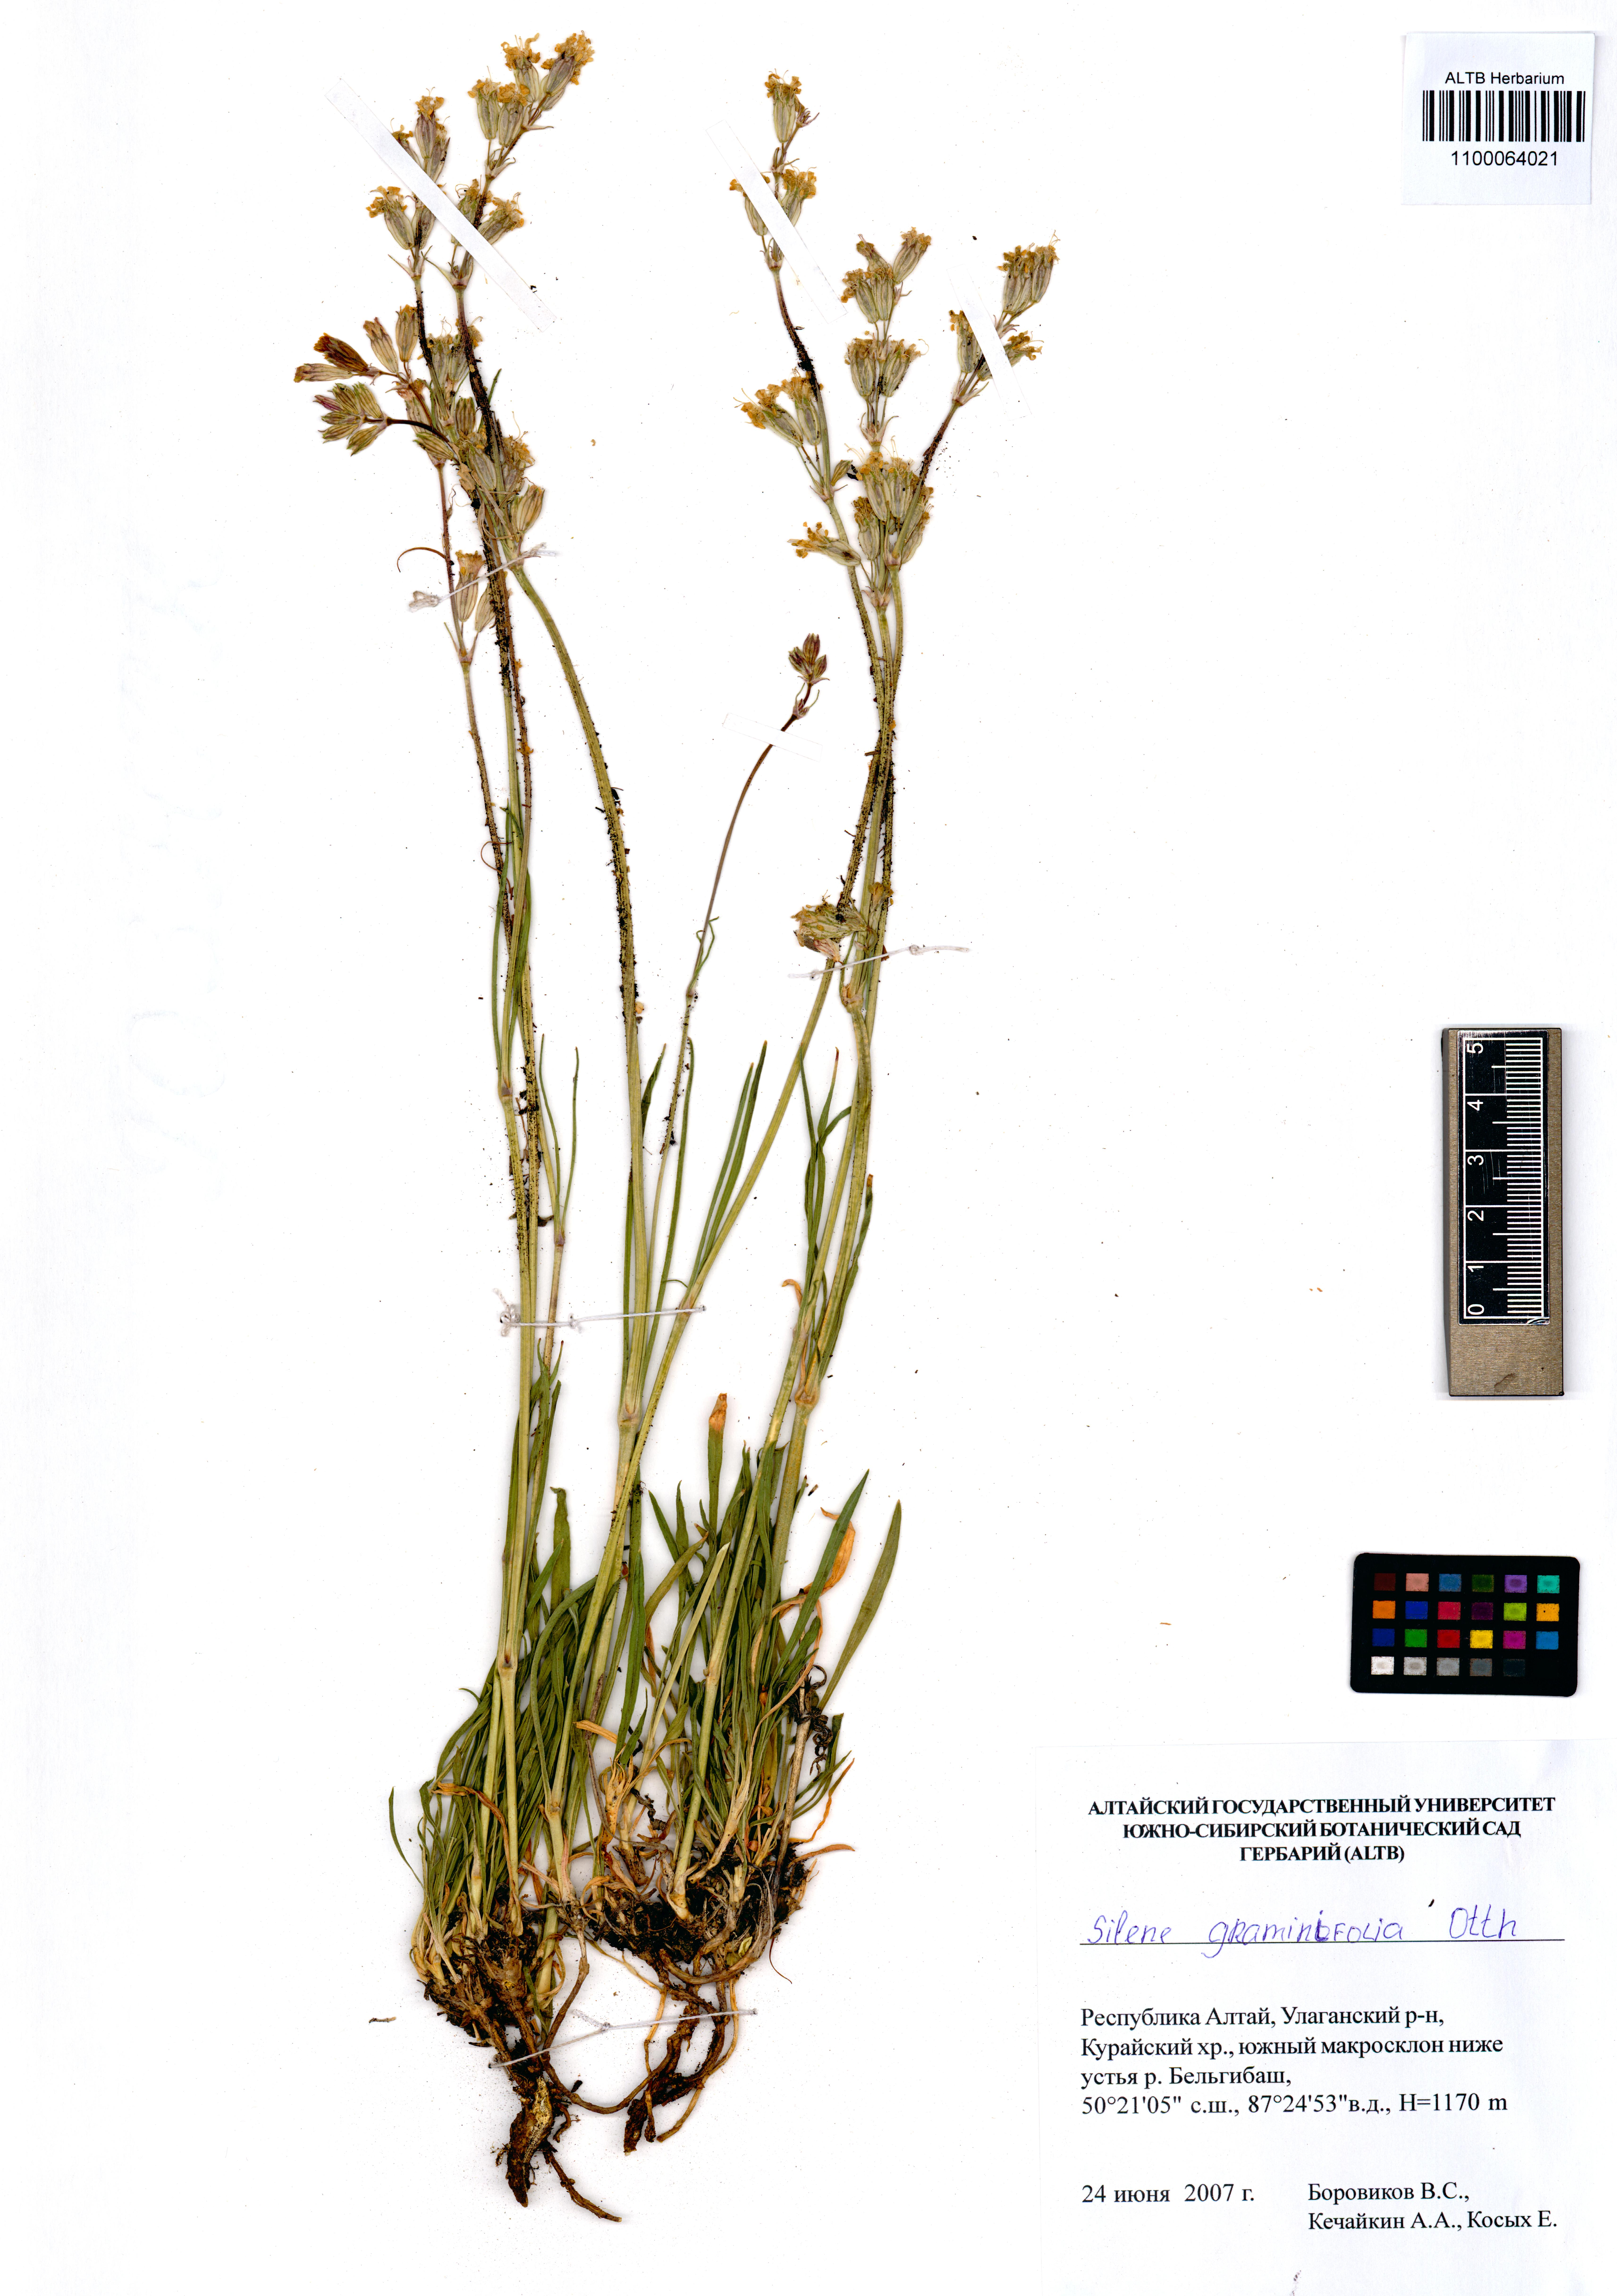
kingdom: Plantae
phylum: Tracheophyta
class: Magnoliopsida
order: Caryophyllales
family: Caryophyllaceae
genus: Silene
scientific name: Silene graminifolia
